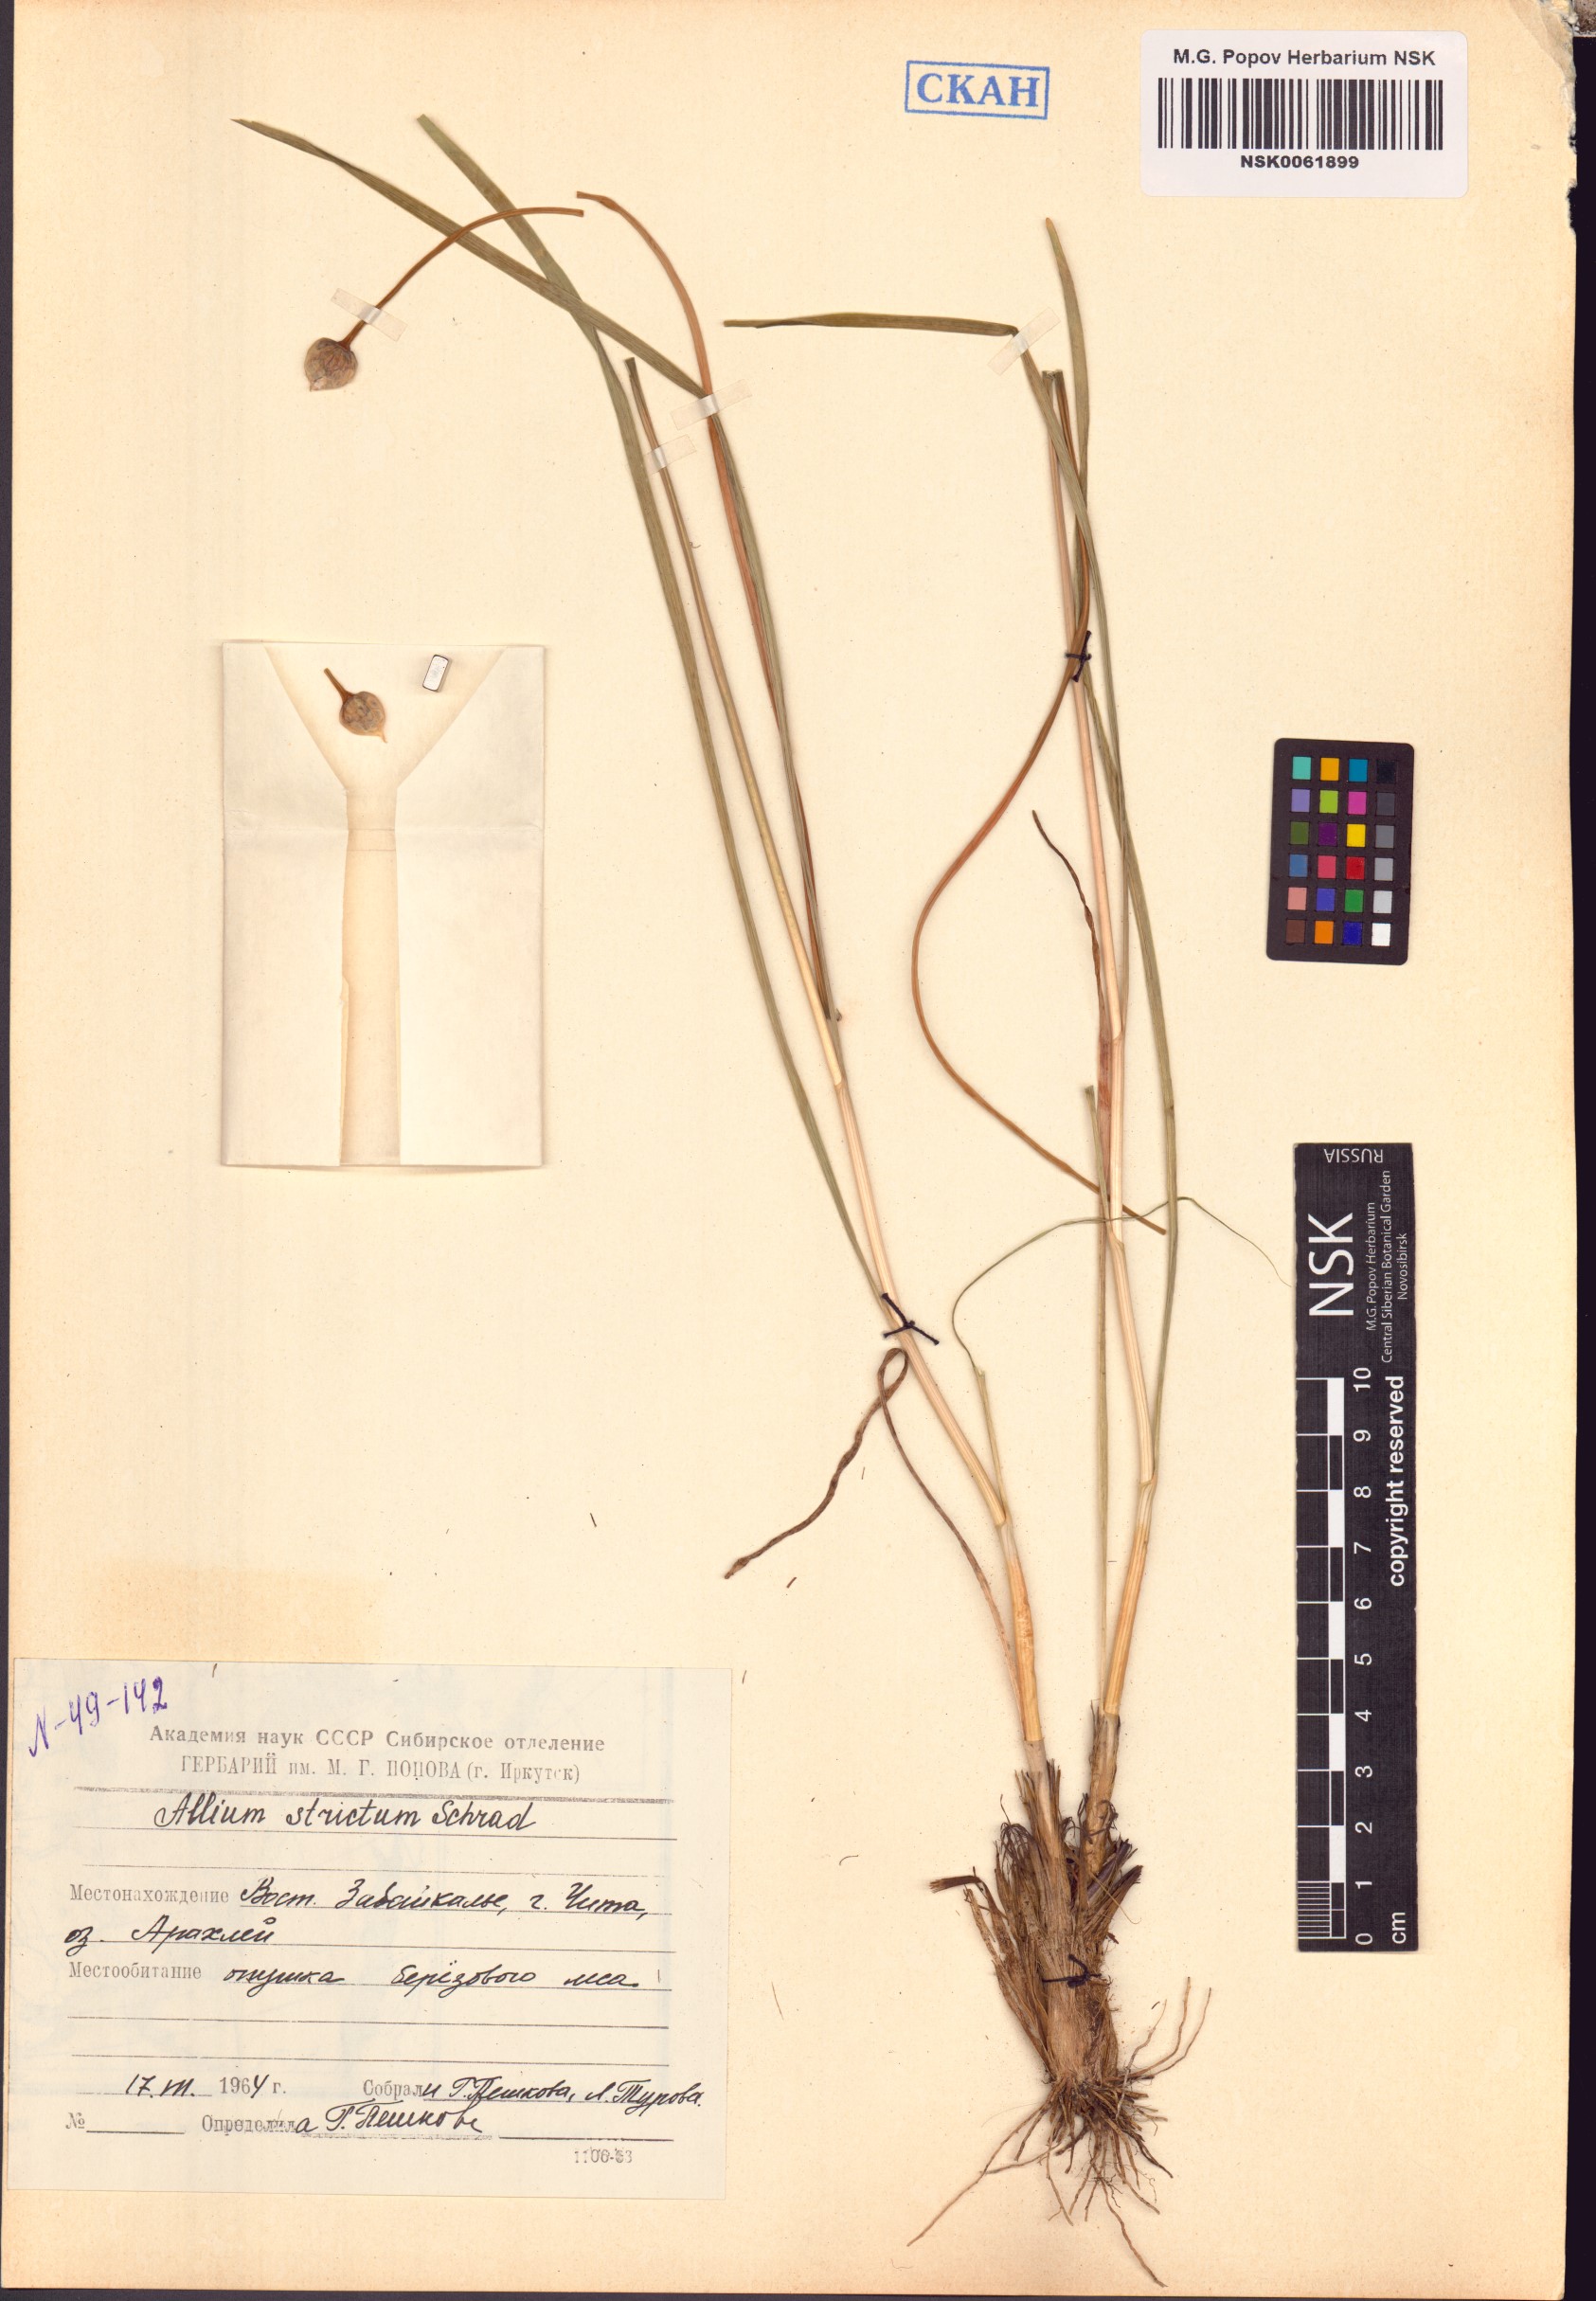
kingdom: Plantae
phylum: Tracheophyta
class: Liliopsida
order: Asparagales
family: Amaryllidaceae
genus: Allium
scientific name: Allium strictum
